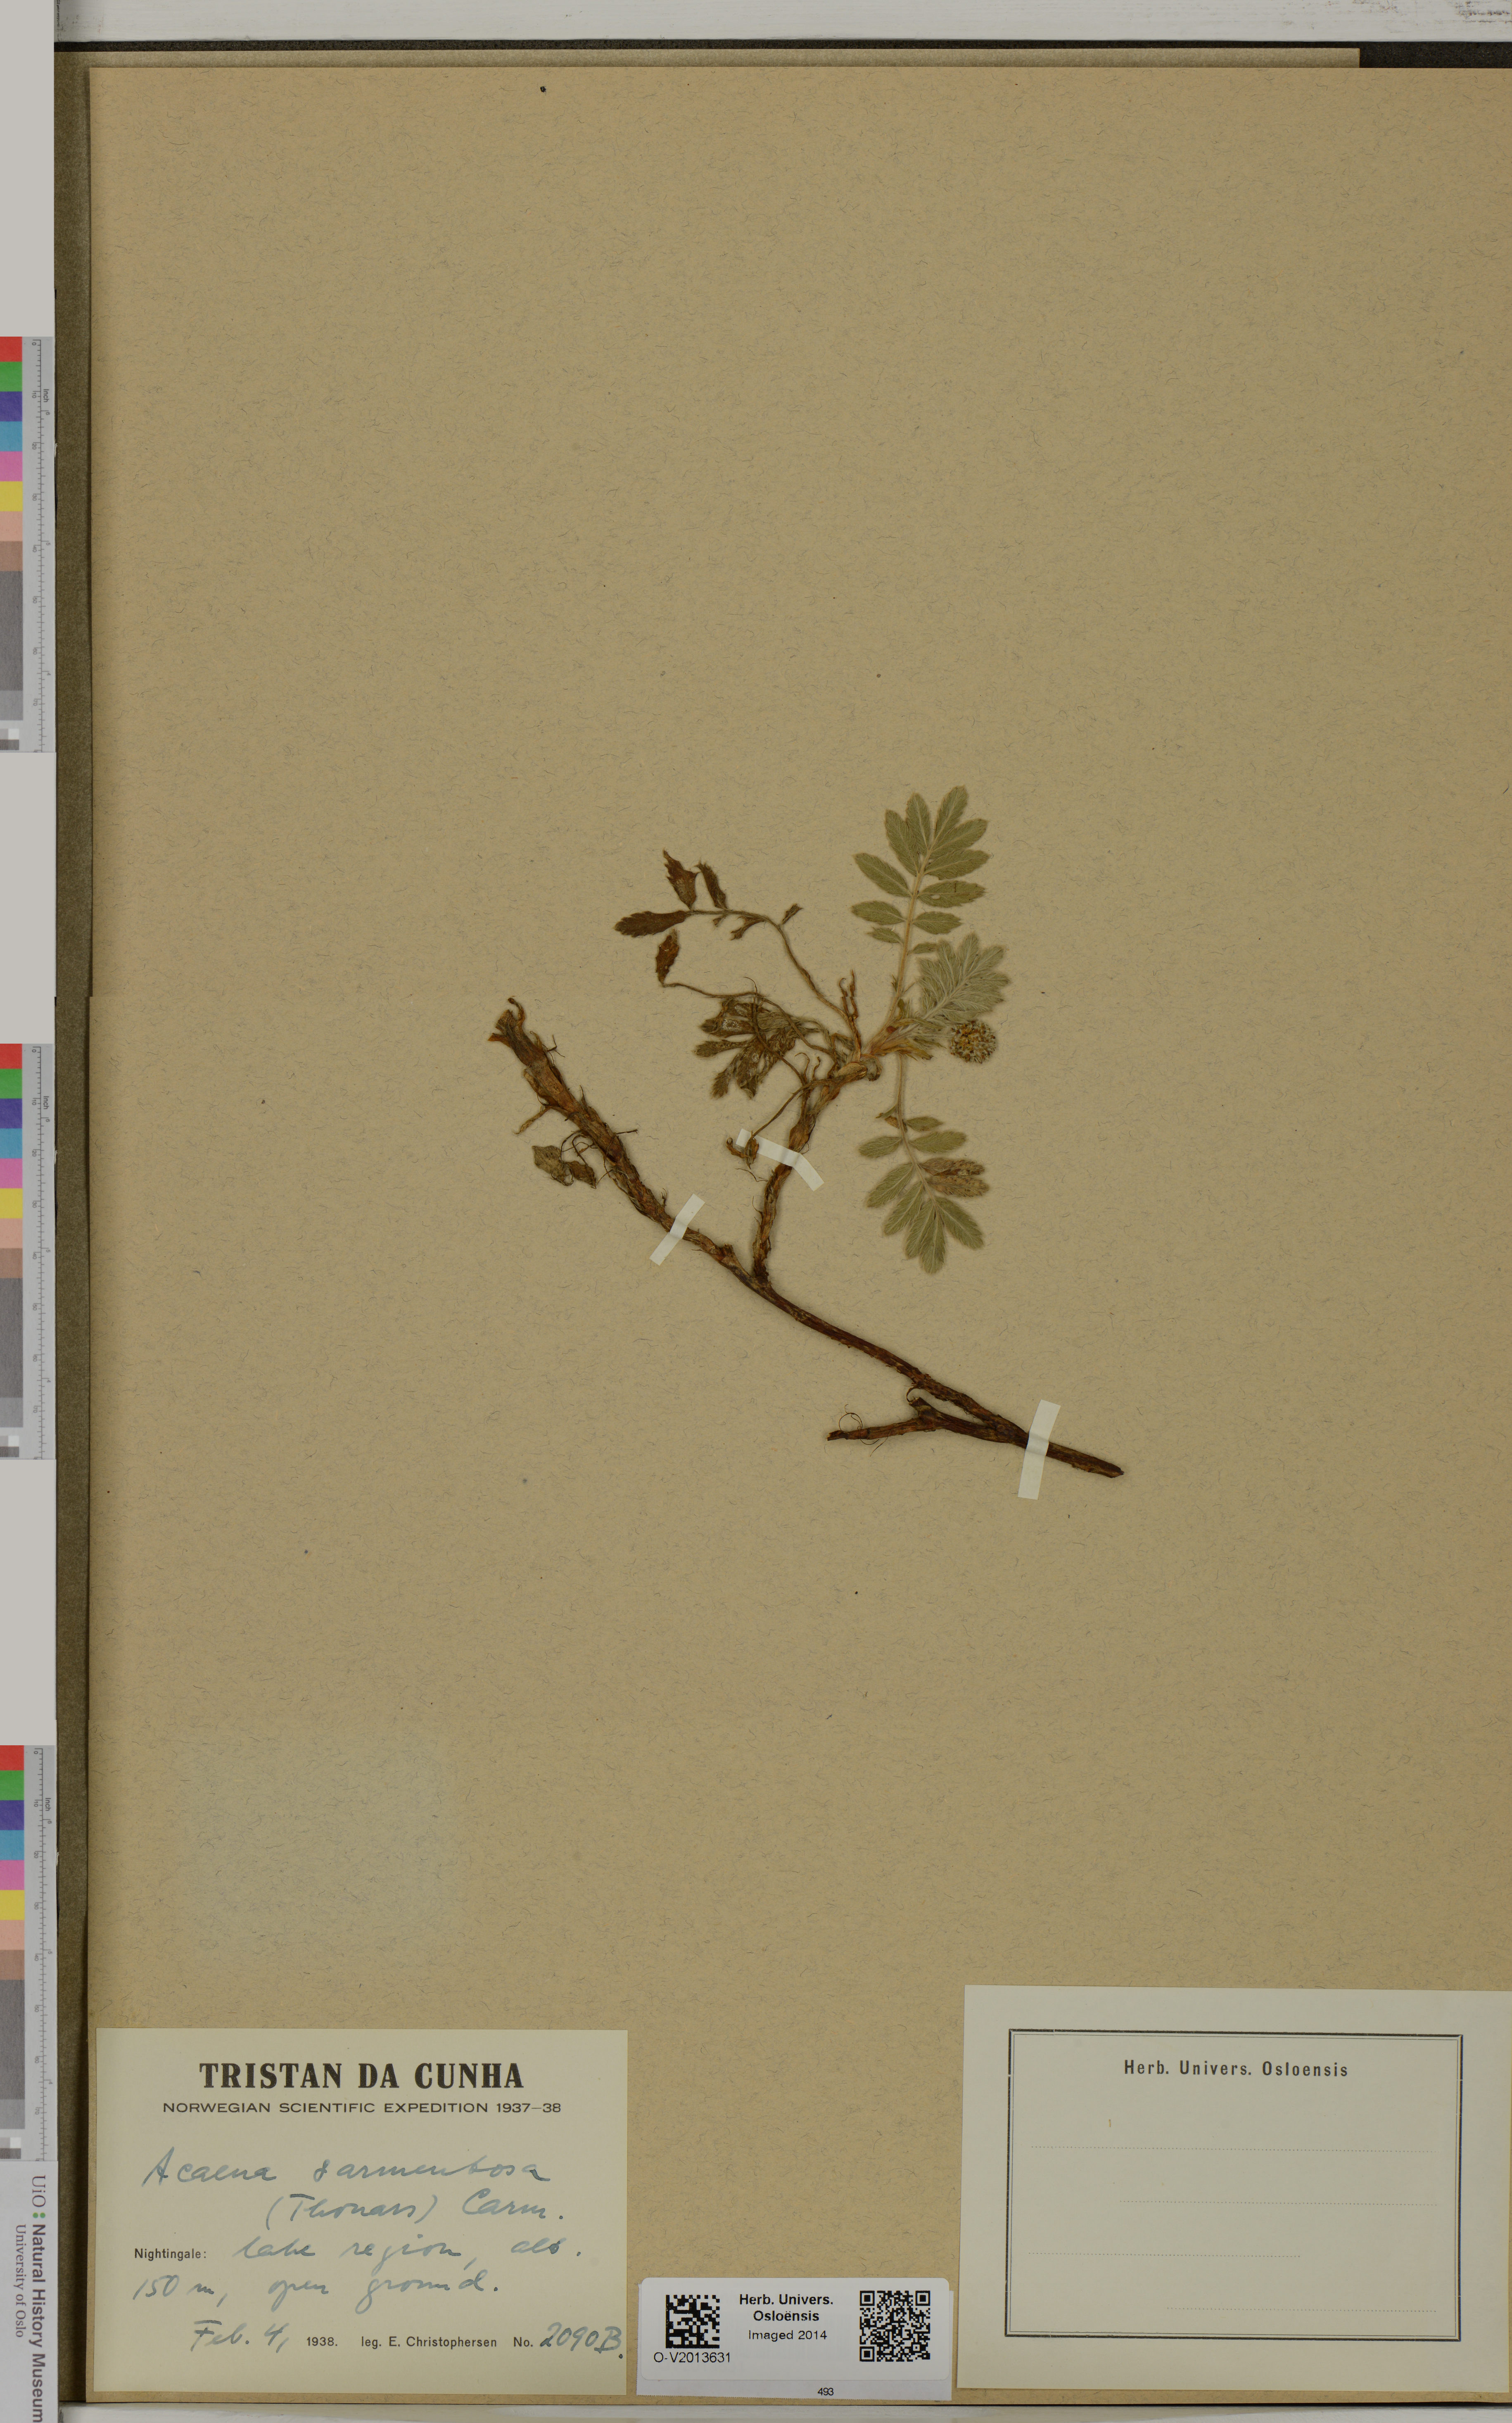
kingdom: Plantae
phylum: Tracheophyta
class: Magnoliopsida
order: Rosales
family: Rosaceae
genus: Acaena
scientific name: Acaena sarmentosa
